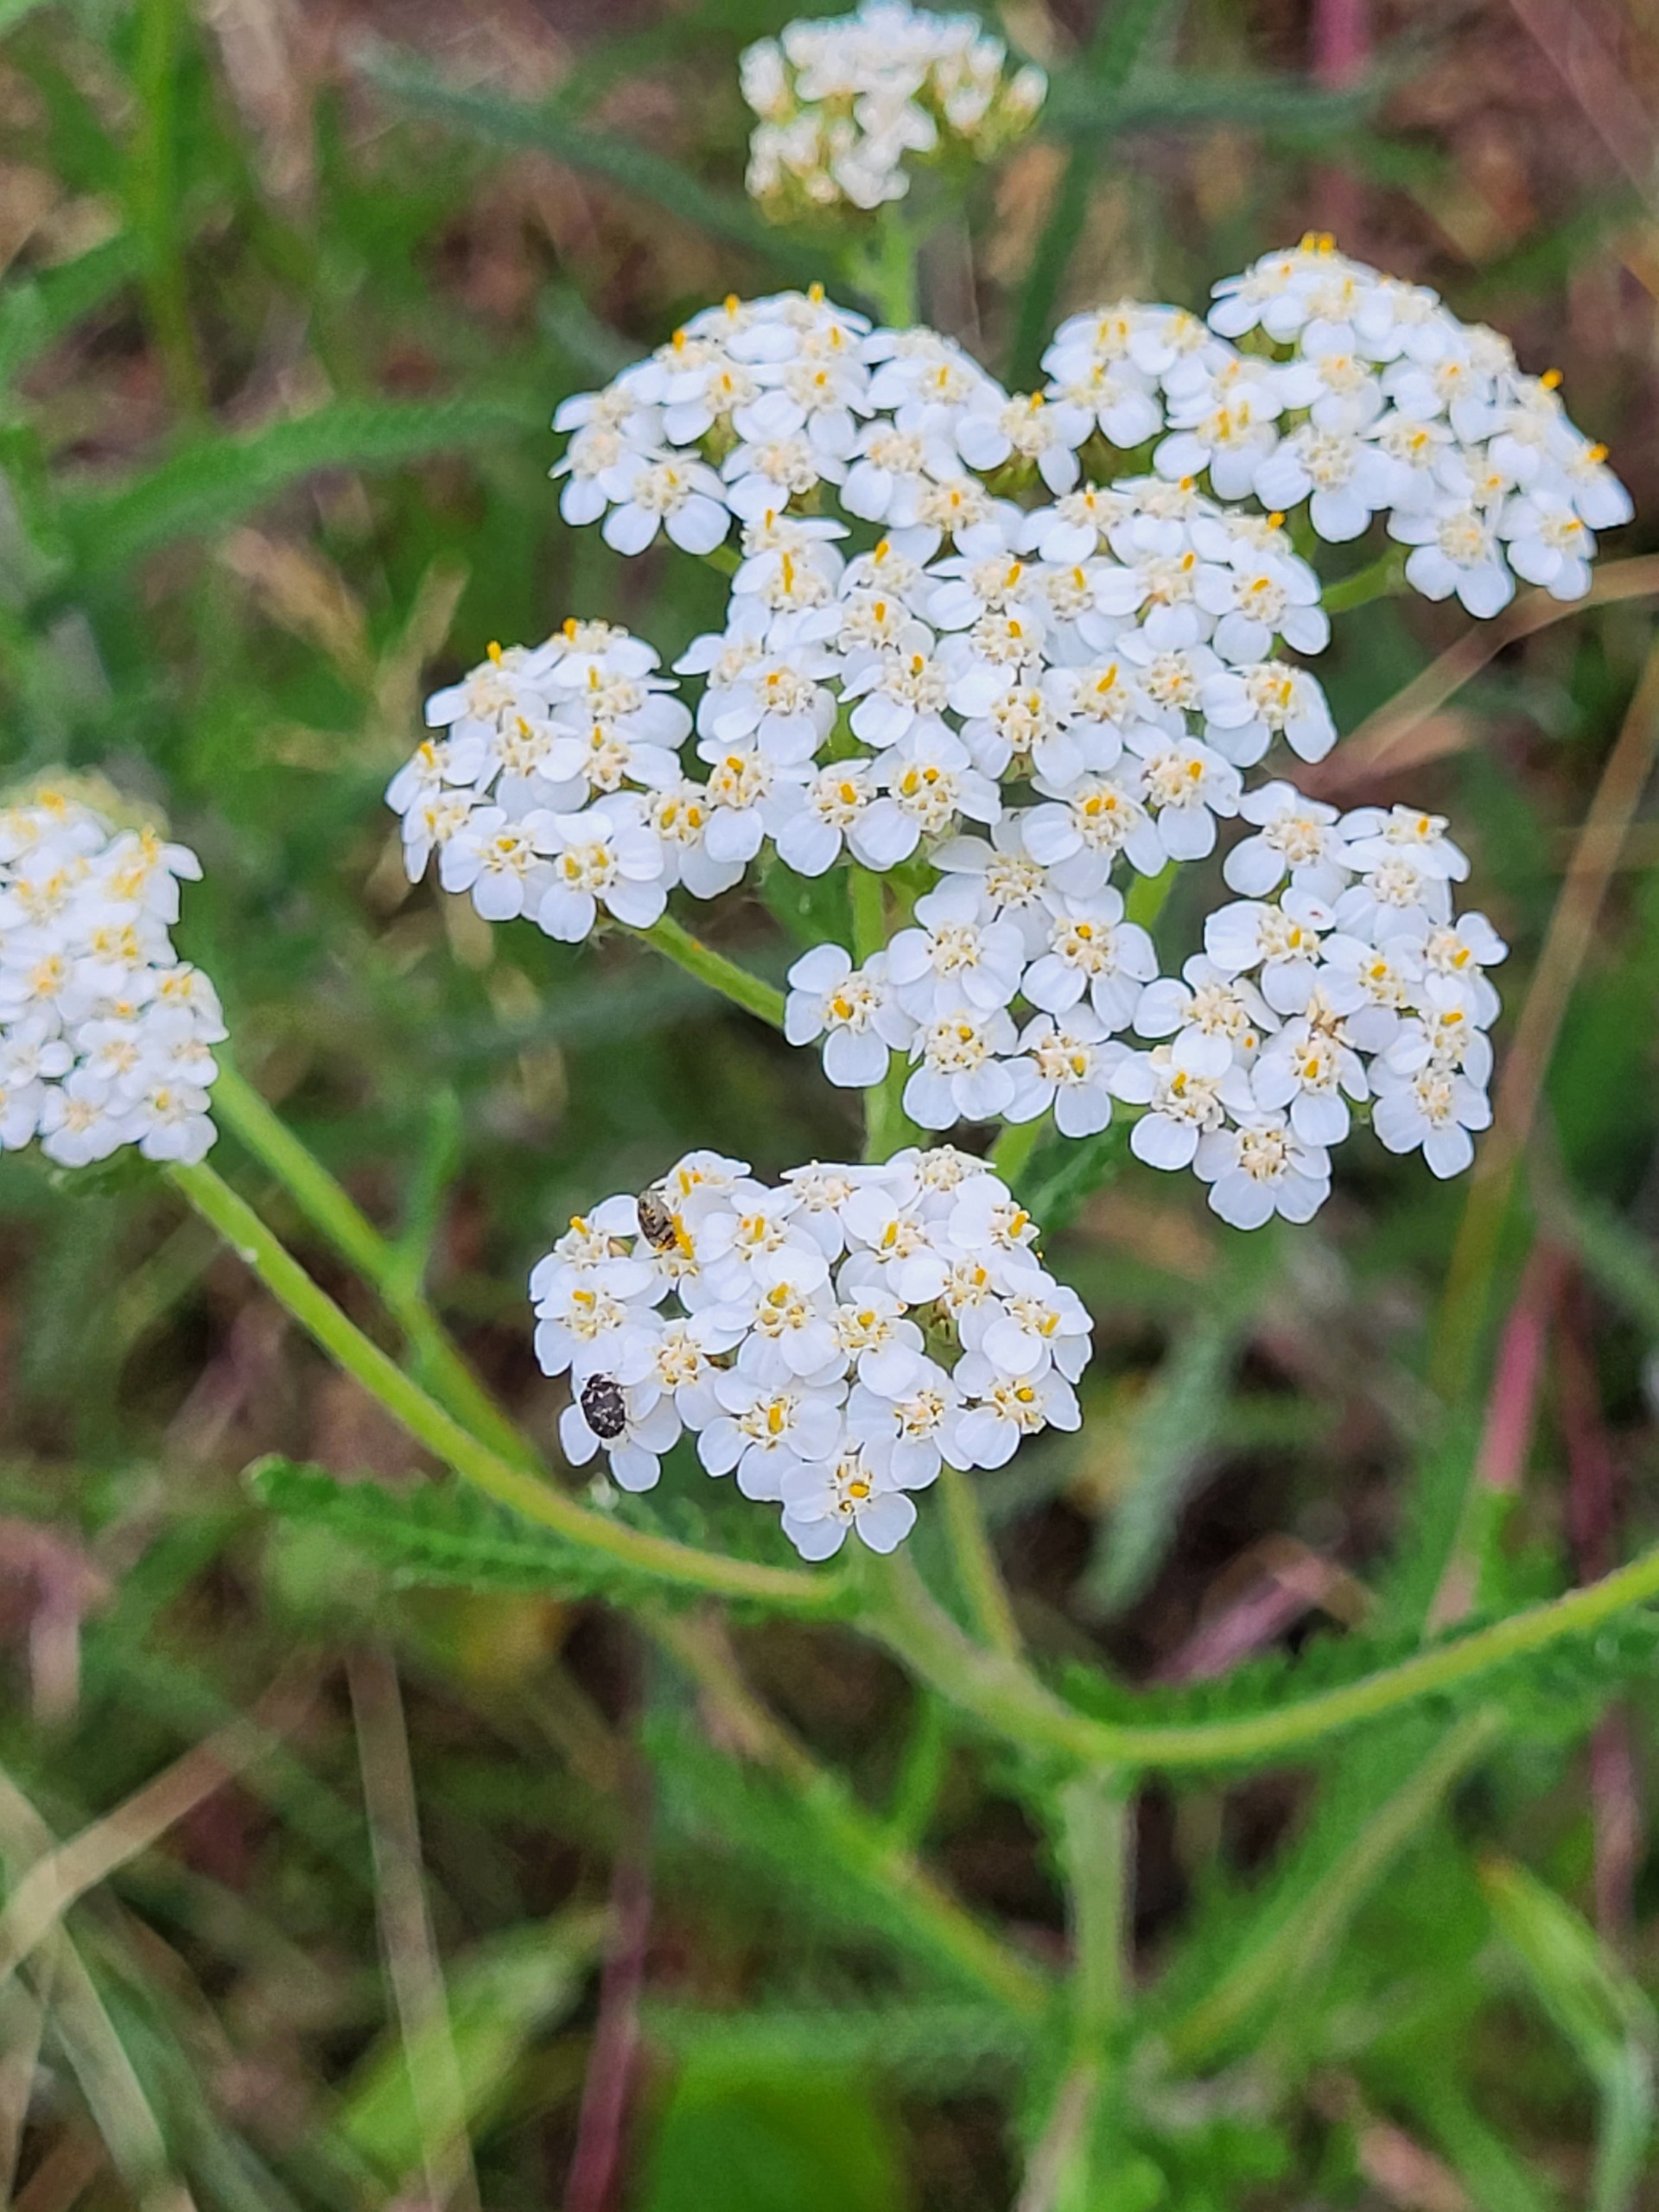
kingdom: Plantae
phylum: Tracheophyta
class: Magnoliopsida
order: Asterales
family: Asteraceae
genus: Achillea
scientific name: Achillea millefolium
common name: Almindelig røllike
